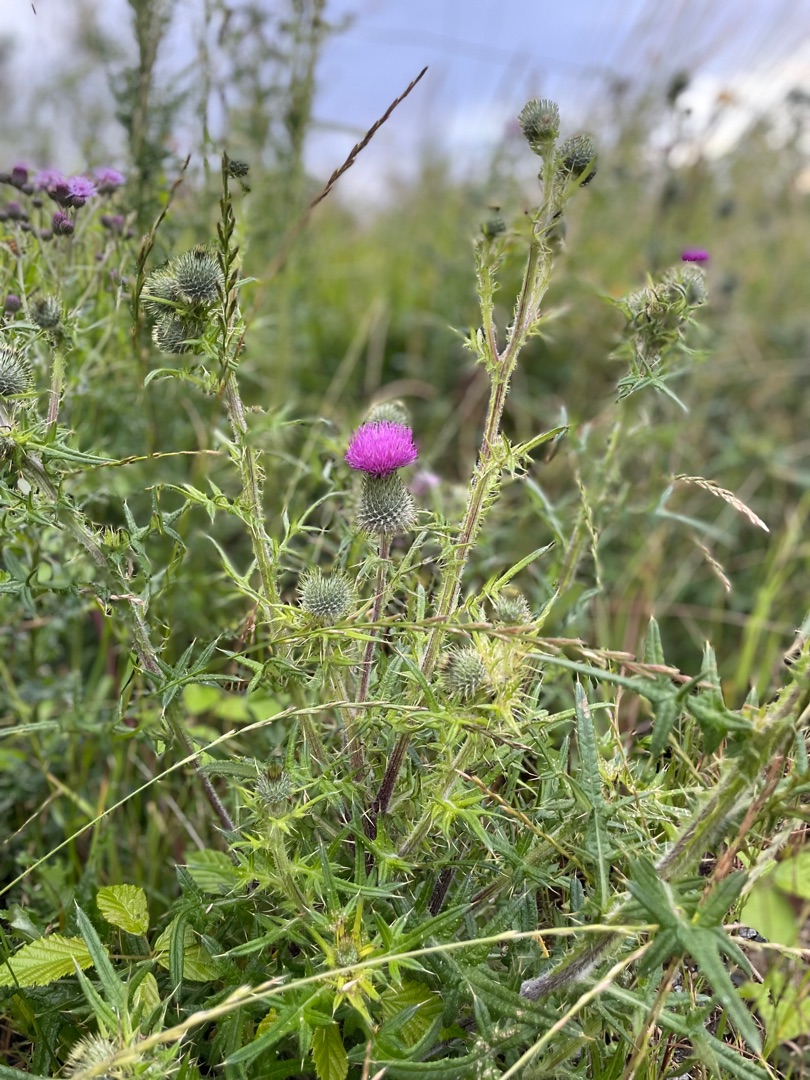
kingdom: Plantae
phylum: Tracheophyta
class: Magnoliopsida
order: Asterales
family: Asteraceae
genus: Cirsium
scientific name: Cirsium vulgare
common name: Horse-tidsel
